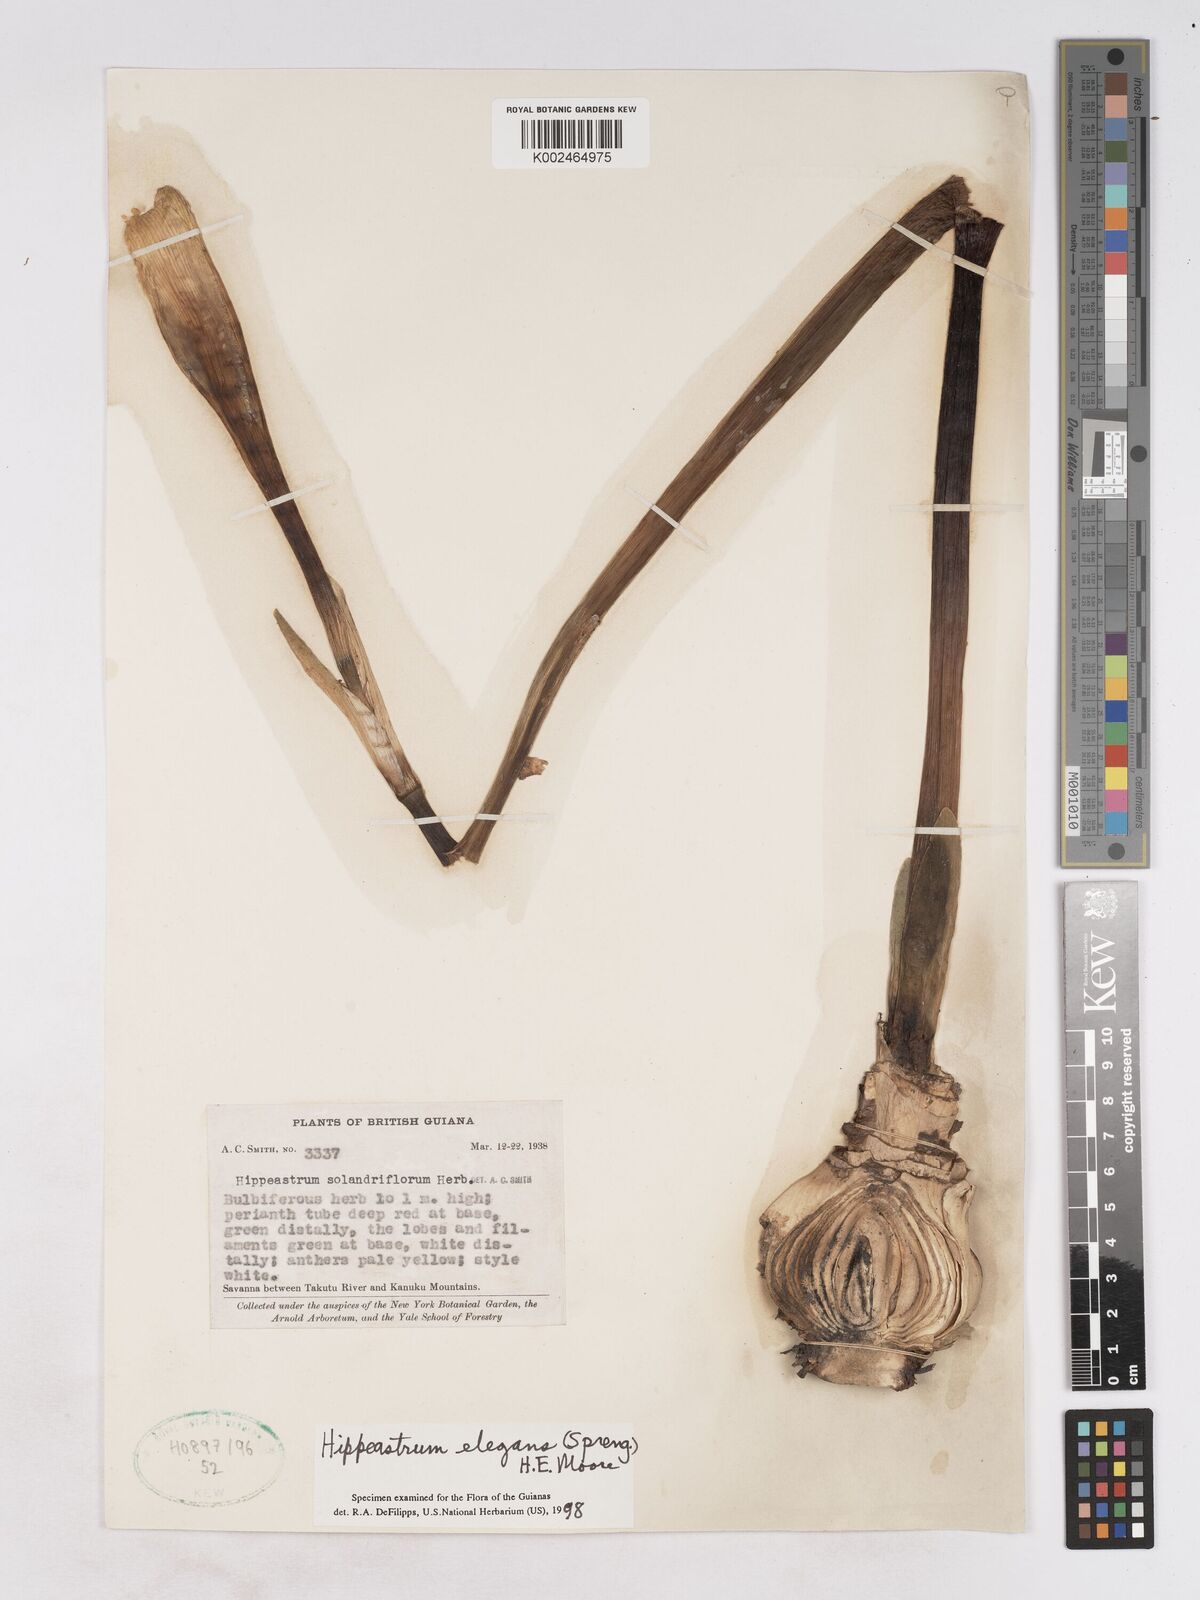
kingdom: Plantae
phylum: Tracheophyta
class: Liliopsida
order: Asparagales
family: Amaryllidaceae
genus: Hippeastrum
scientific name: Hippeastrum elegans
